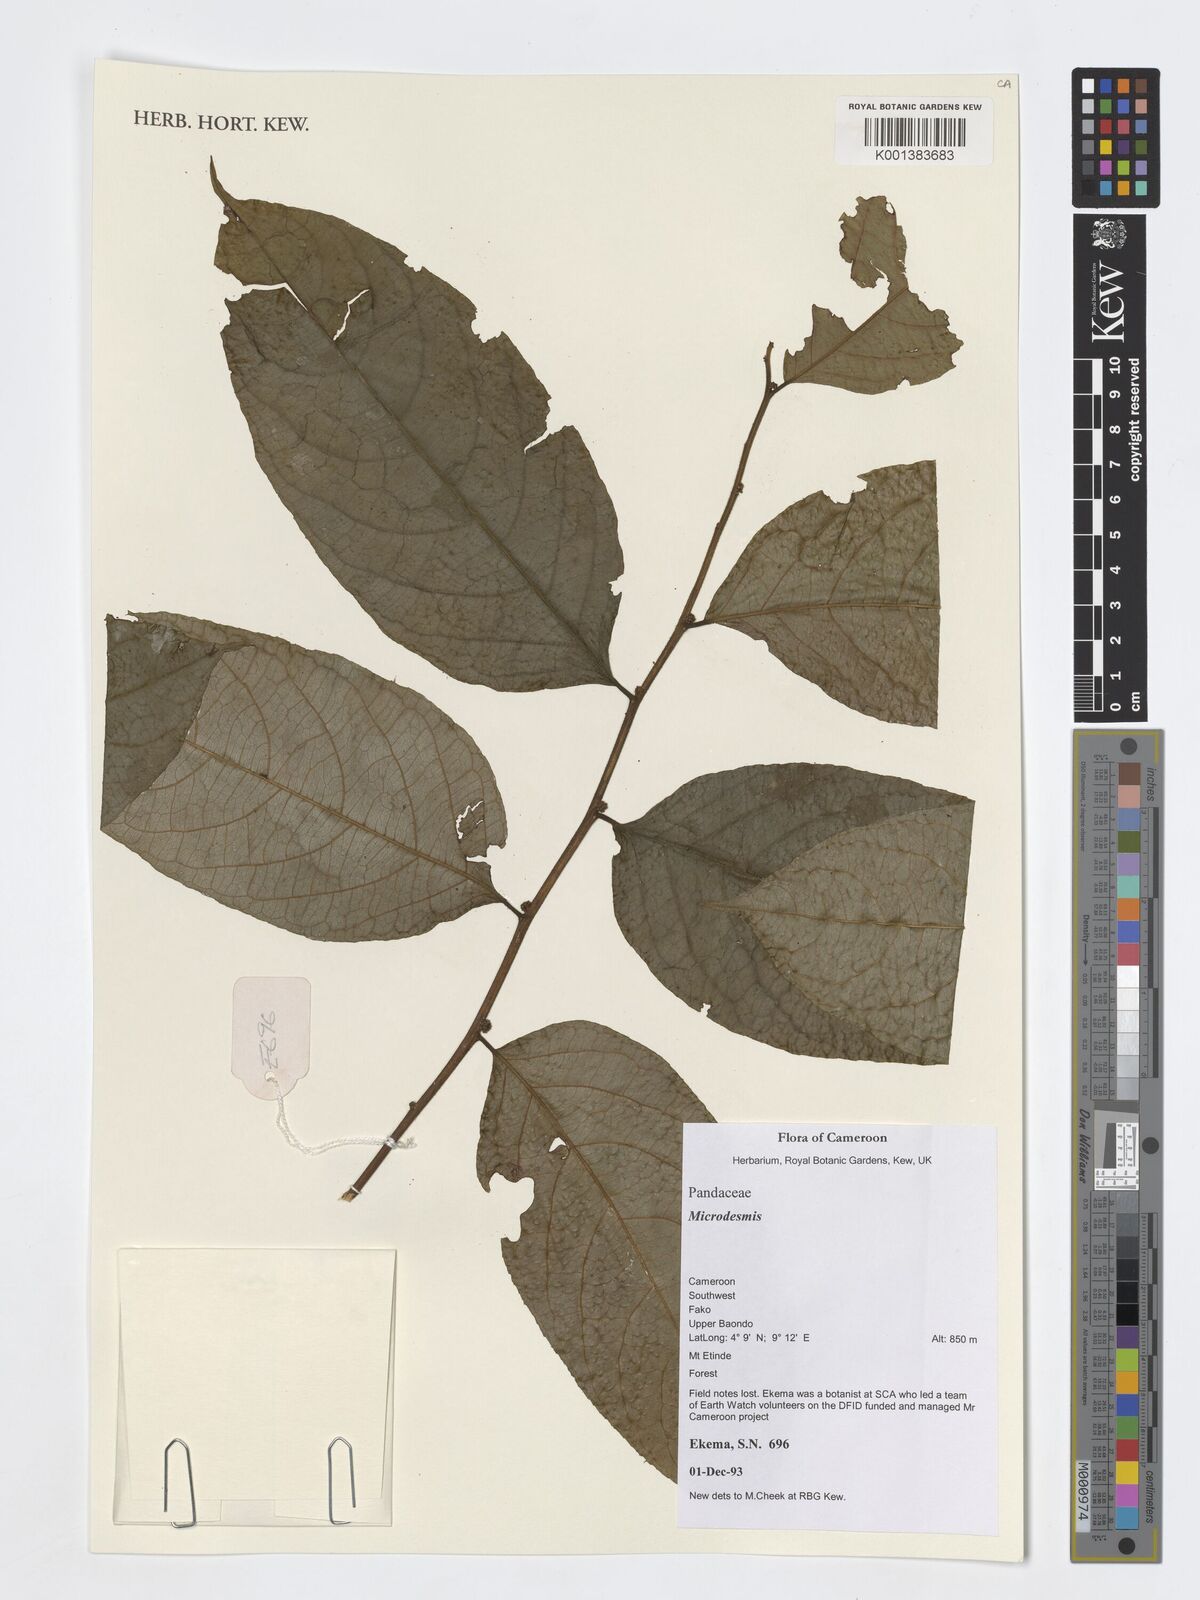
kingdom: Plantae
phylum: Tracheophyta
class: Magnoliopsida
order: Malpighiales
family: Pandaceae
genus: Microdesmis
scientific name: Microdesmis
